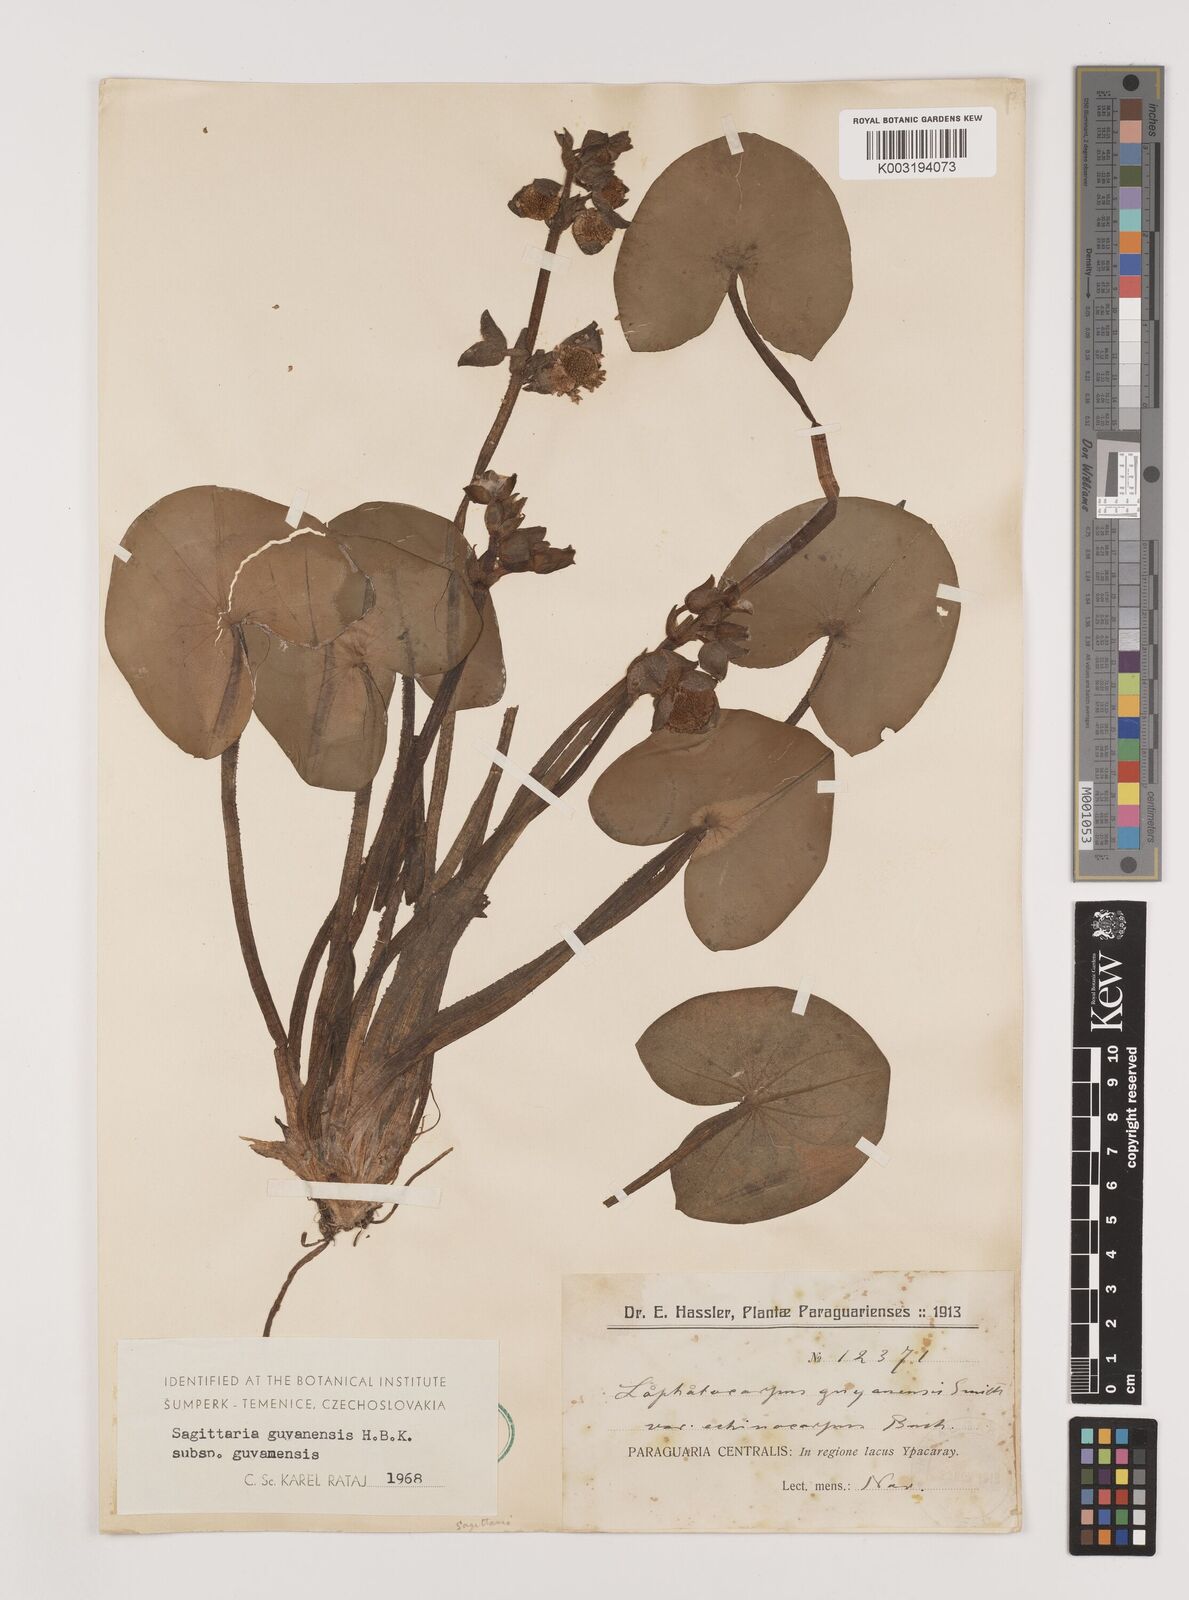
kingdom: Plantae
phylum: Tracheophyta
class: Liliopsida
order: Alismatales
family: Alismataceae
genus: Sagittaria
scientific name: Sagittaria guayanensis
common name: Guyanese arrowhead
